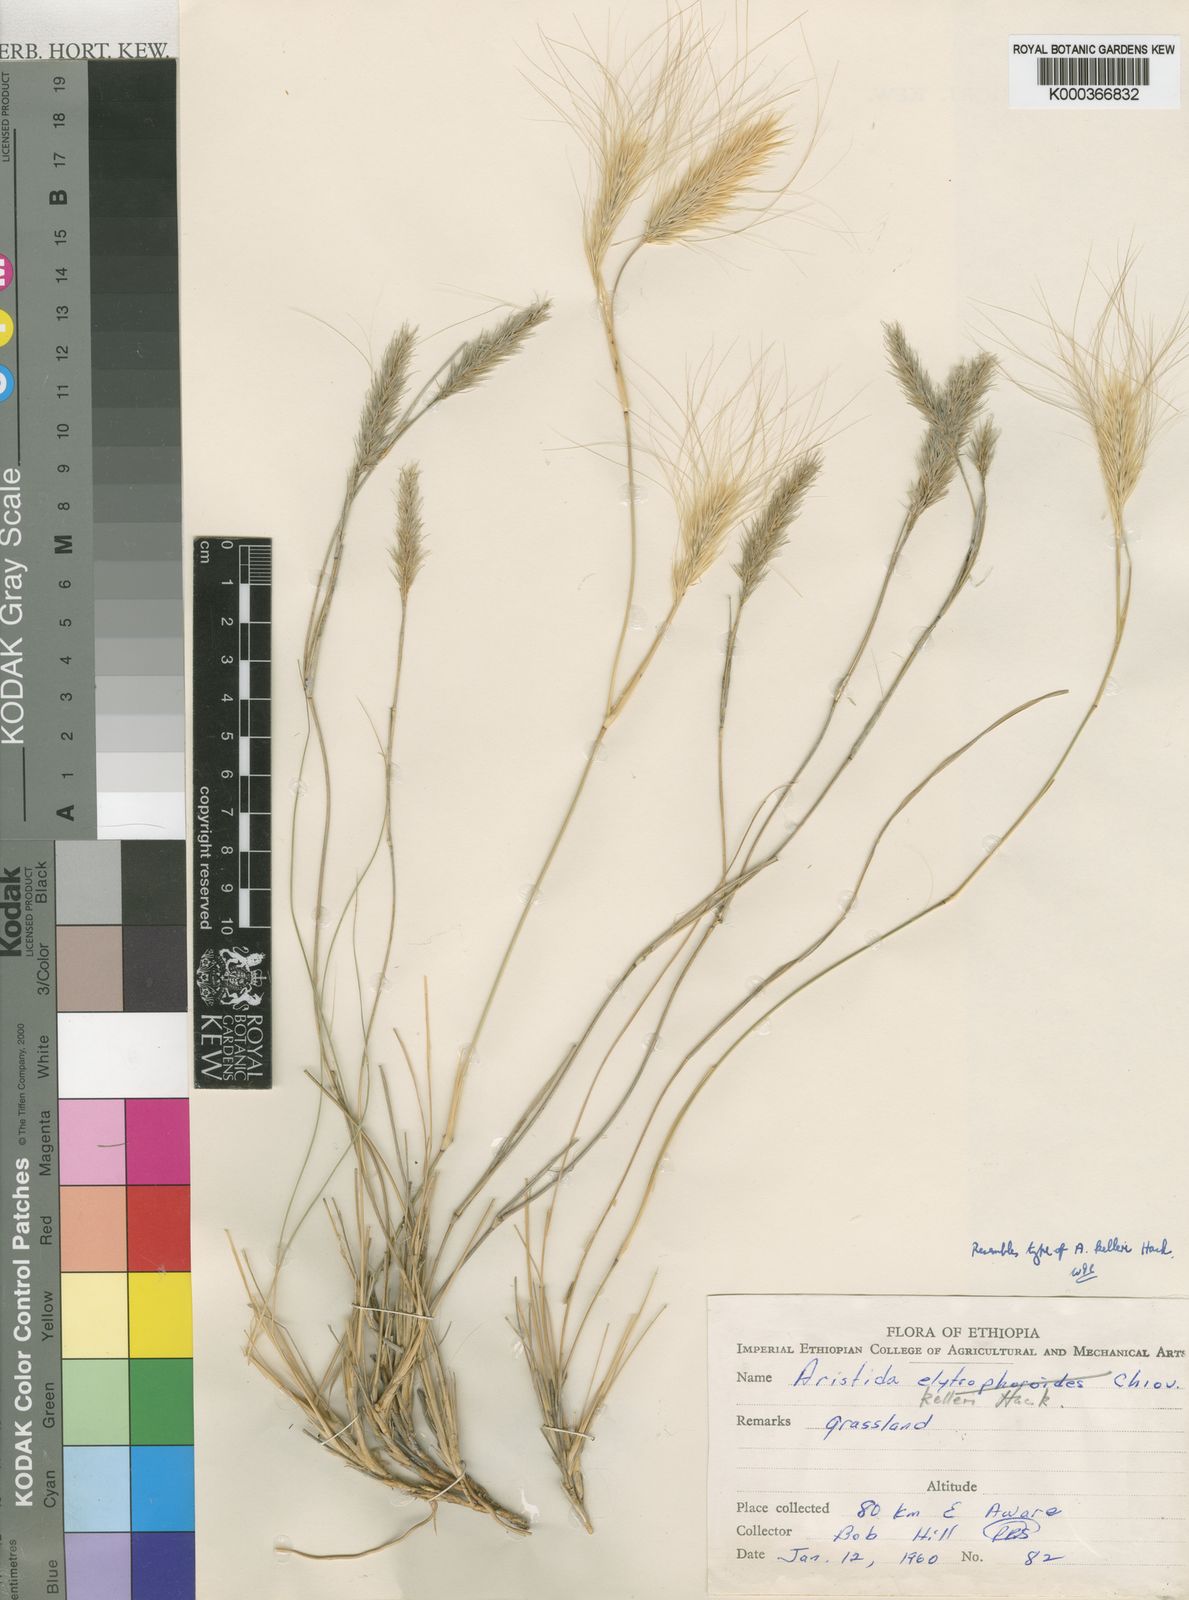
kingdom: Plantae
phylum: Tracheophyta
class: Liliopsida
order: Poales
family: Poaceae
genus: Aristida
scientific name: Aristida kelleri
